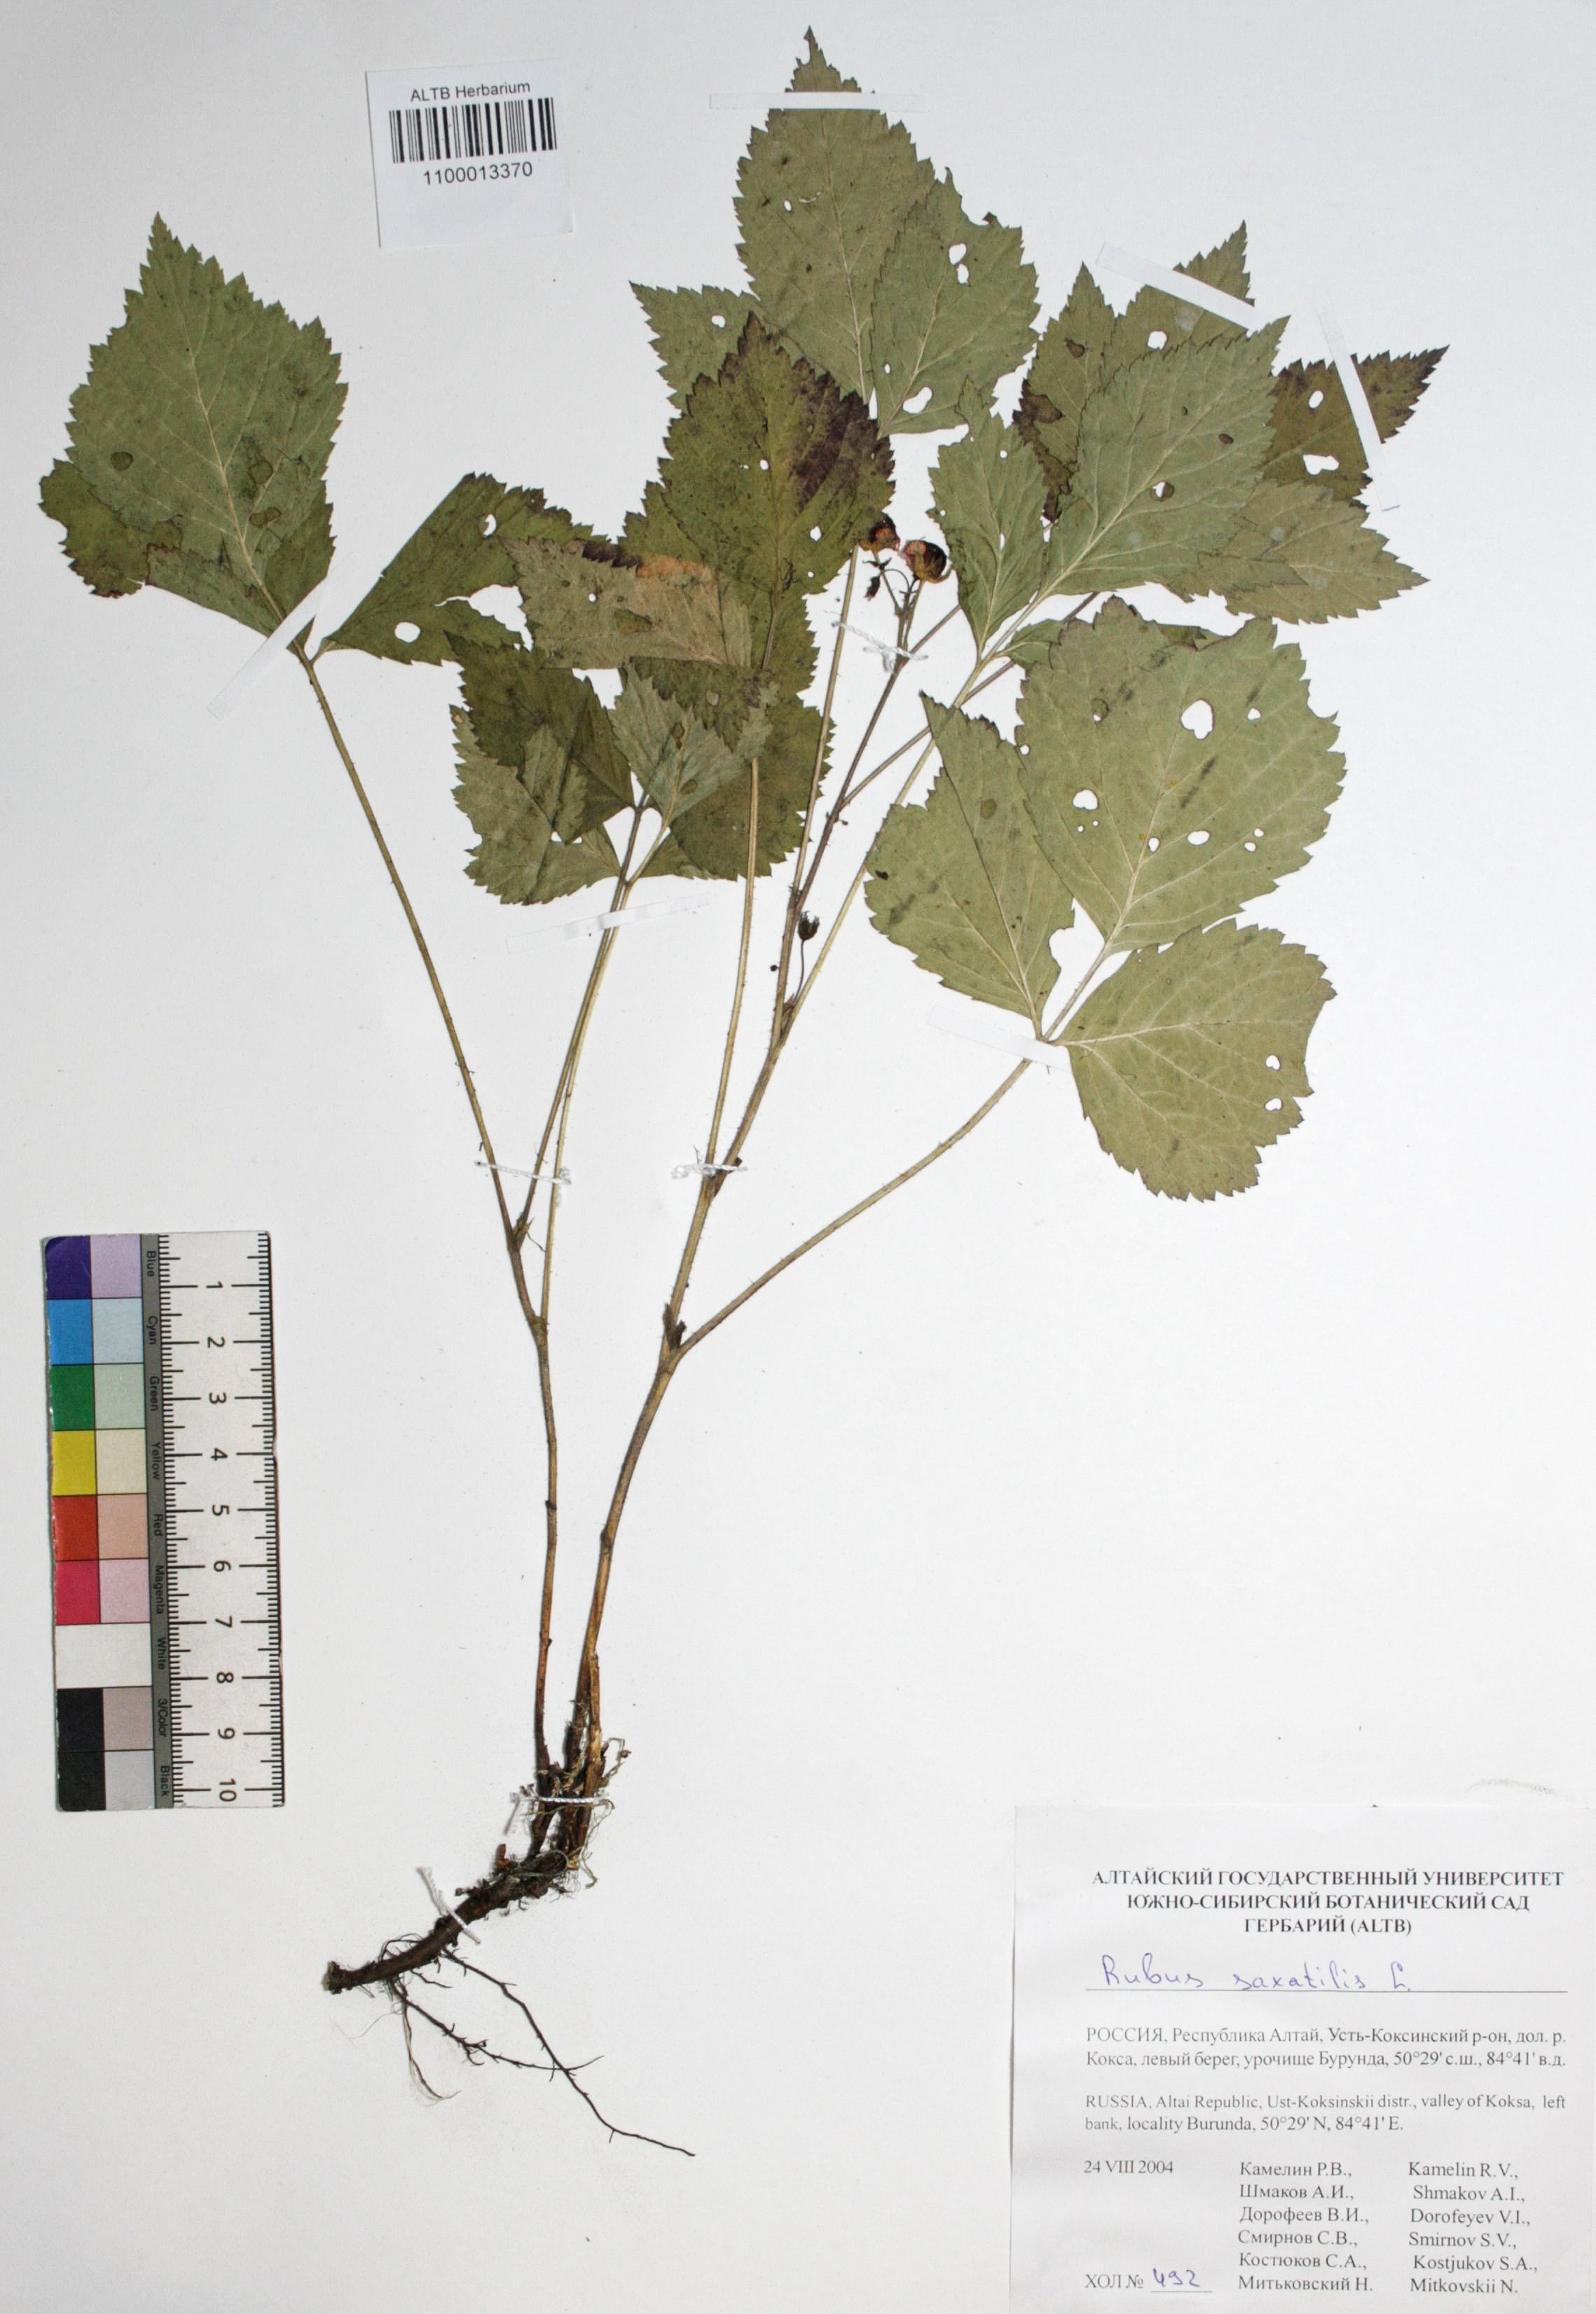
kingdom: Plantae
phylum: Tracheophyta
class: Magnoliopsida
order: Rosales
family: Rosaceae
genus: Rubus
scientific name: Rubus saxatilis
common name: Stone bramble
